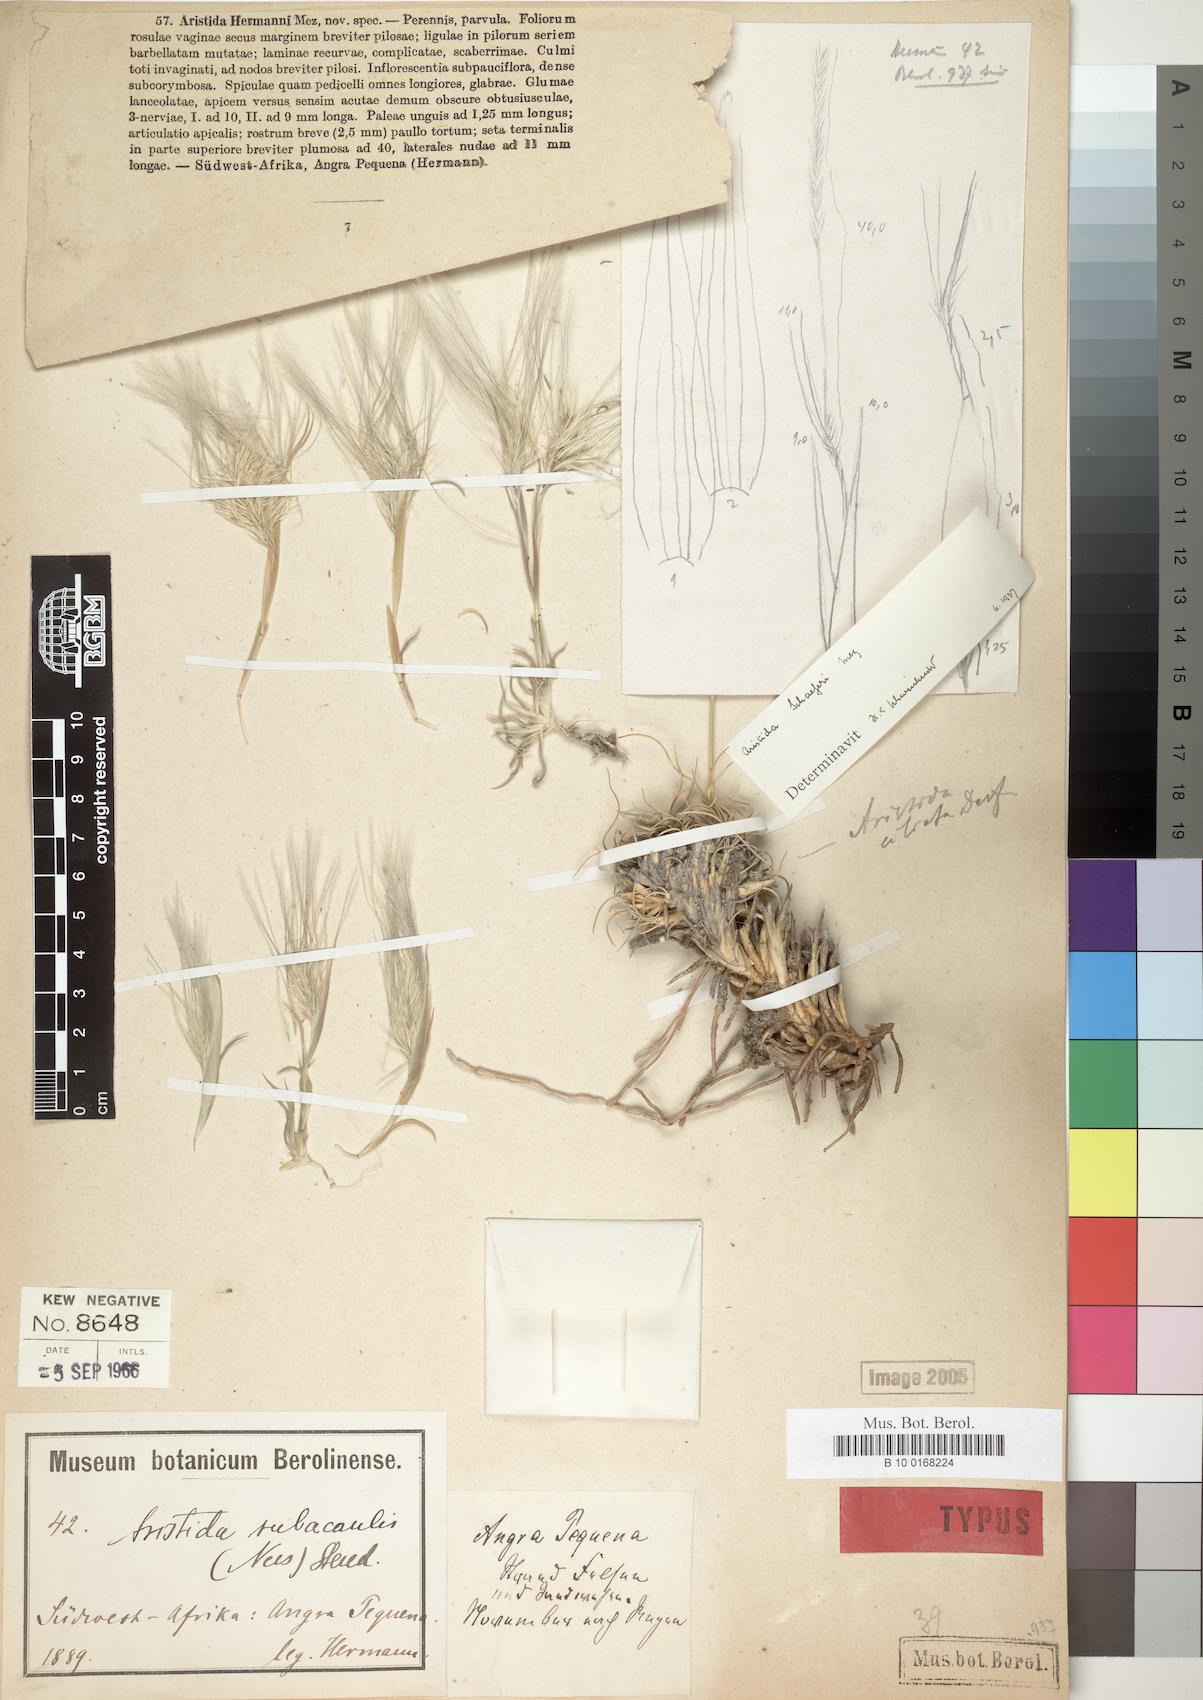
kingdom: Plantae
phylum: Tracheophyta
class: Liliopsida
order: Poales
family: Poaceae
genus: Stipagrostis
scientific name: Stipagrostis hermannii
